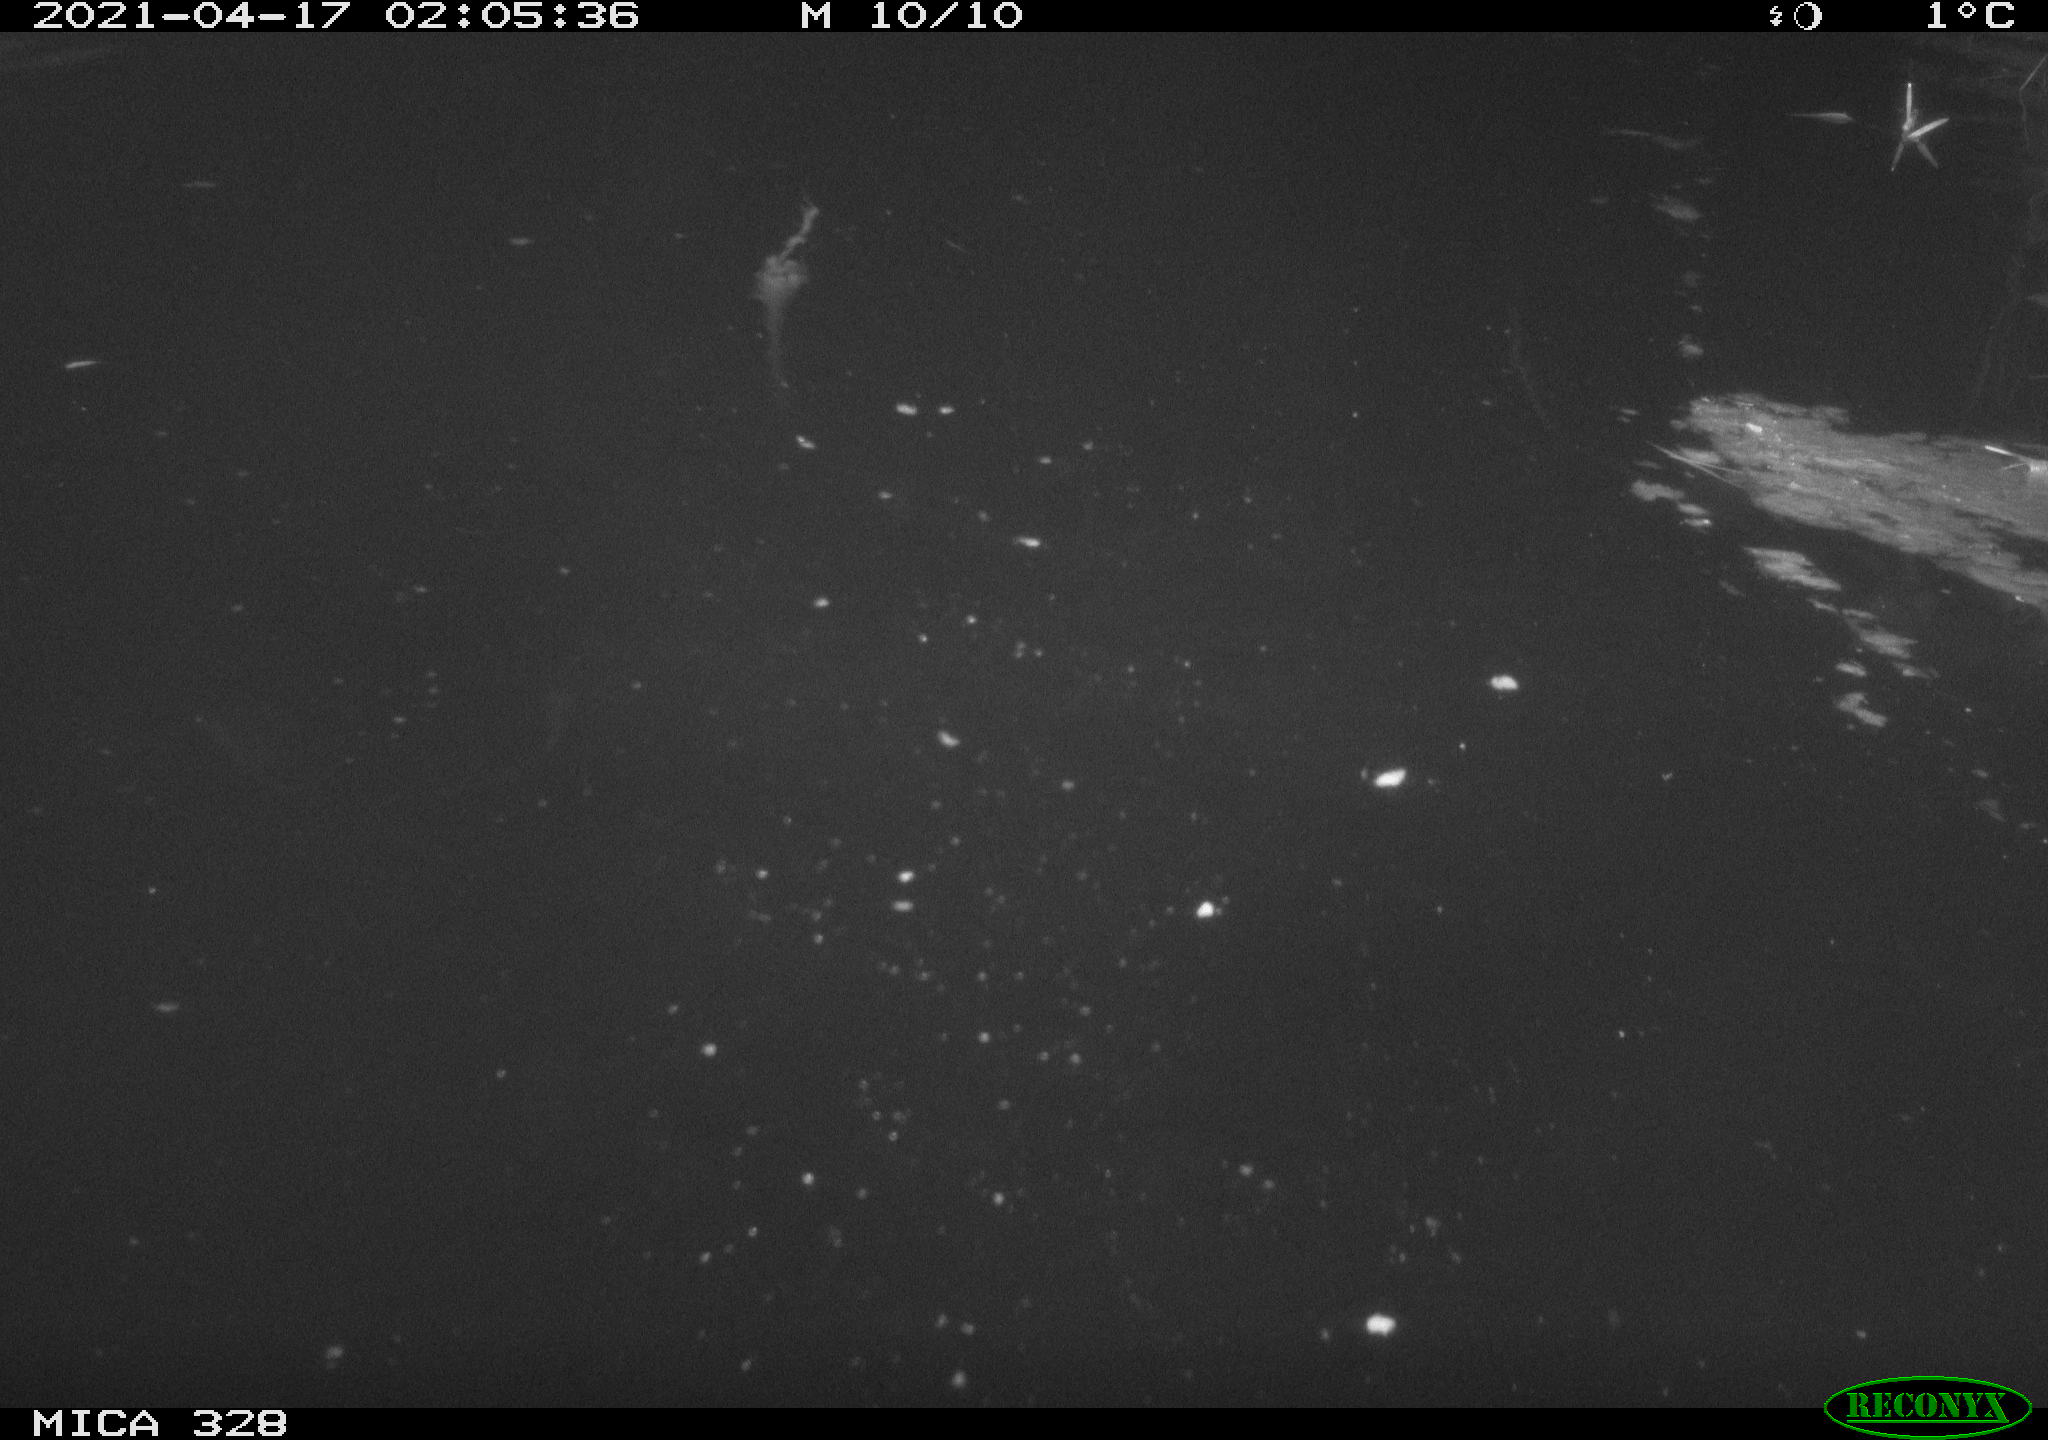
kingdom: Animalia
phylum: Chordata
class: Mammalia
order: Rodentia
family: Cricetidae
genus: Ondatra
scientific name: Ondatra zibethicus
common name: Muskrat
